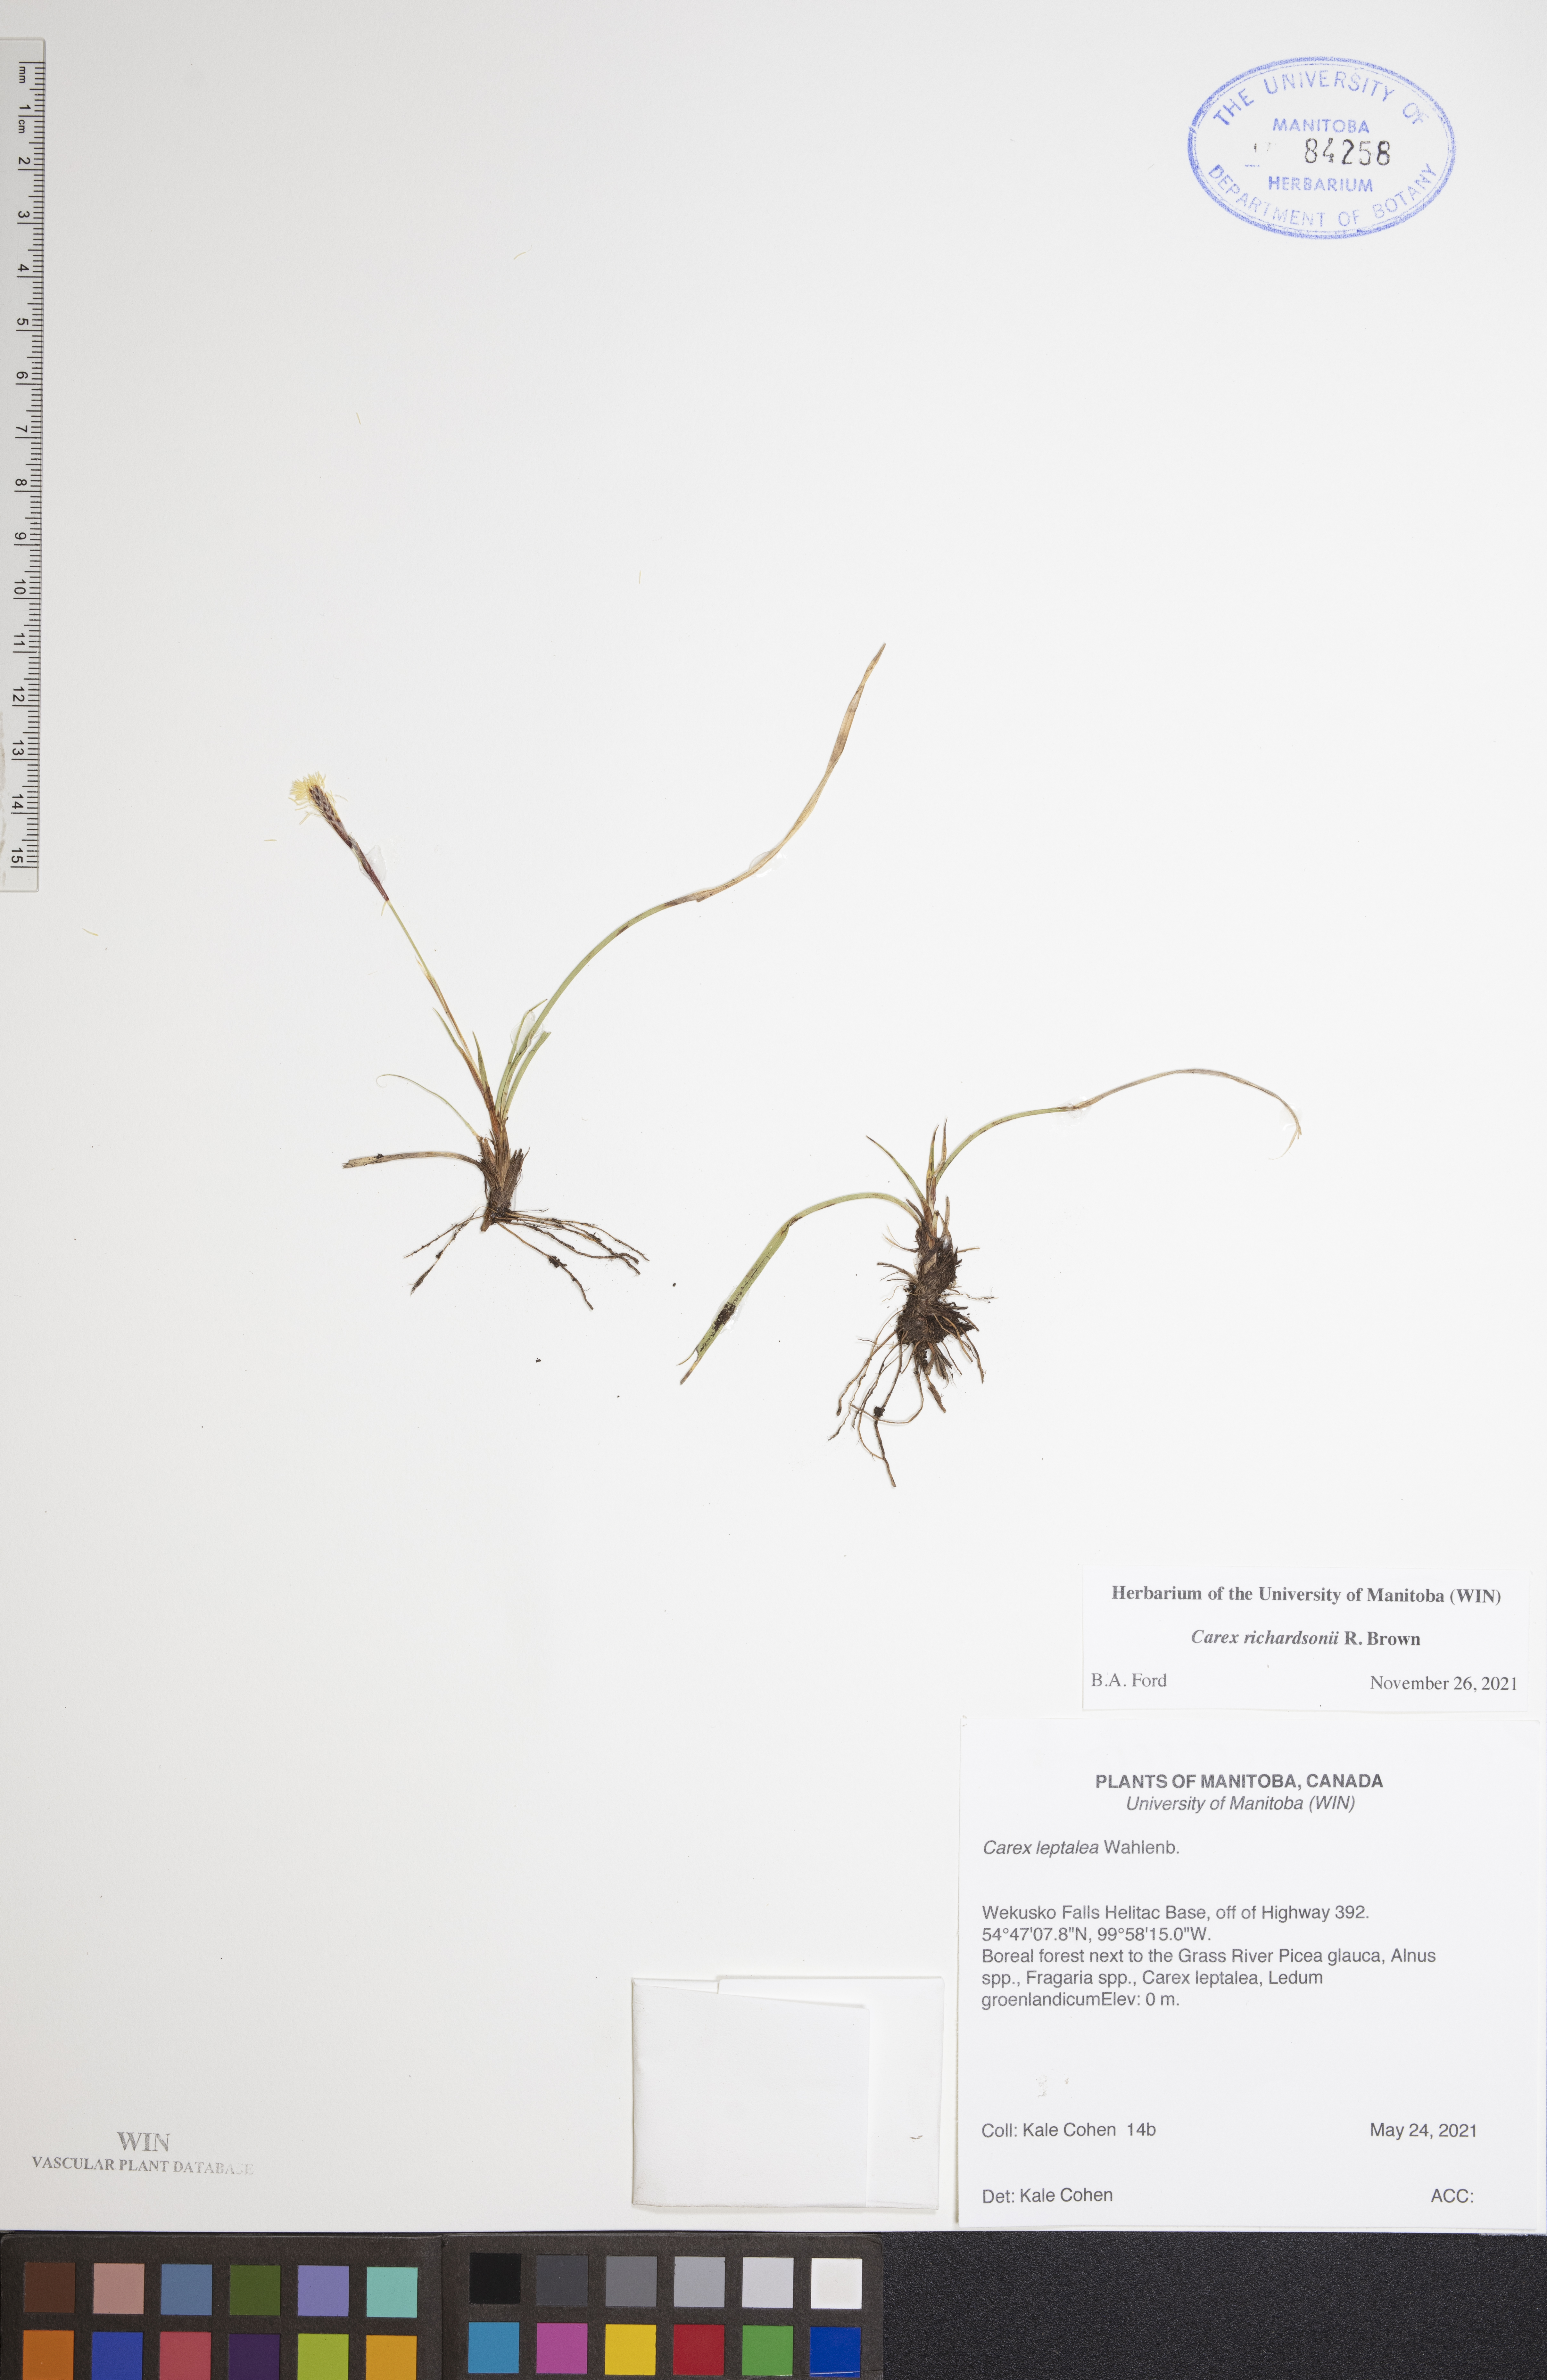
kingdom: Plantae
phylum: Tracheophyta
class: Liliopsida
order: Poales
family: Cyperaceae
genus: Carex
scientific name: Carex richardsonii
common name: Prairie hummock sedge
